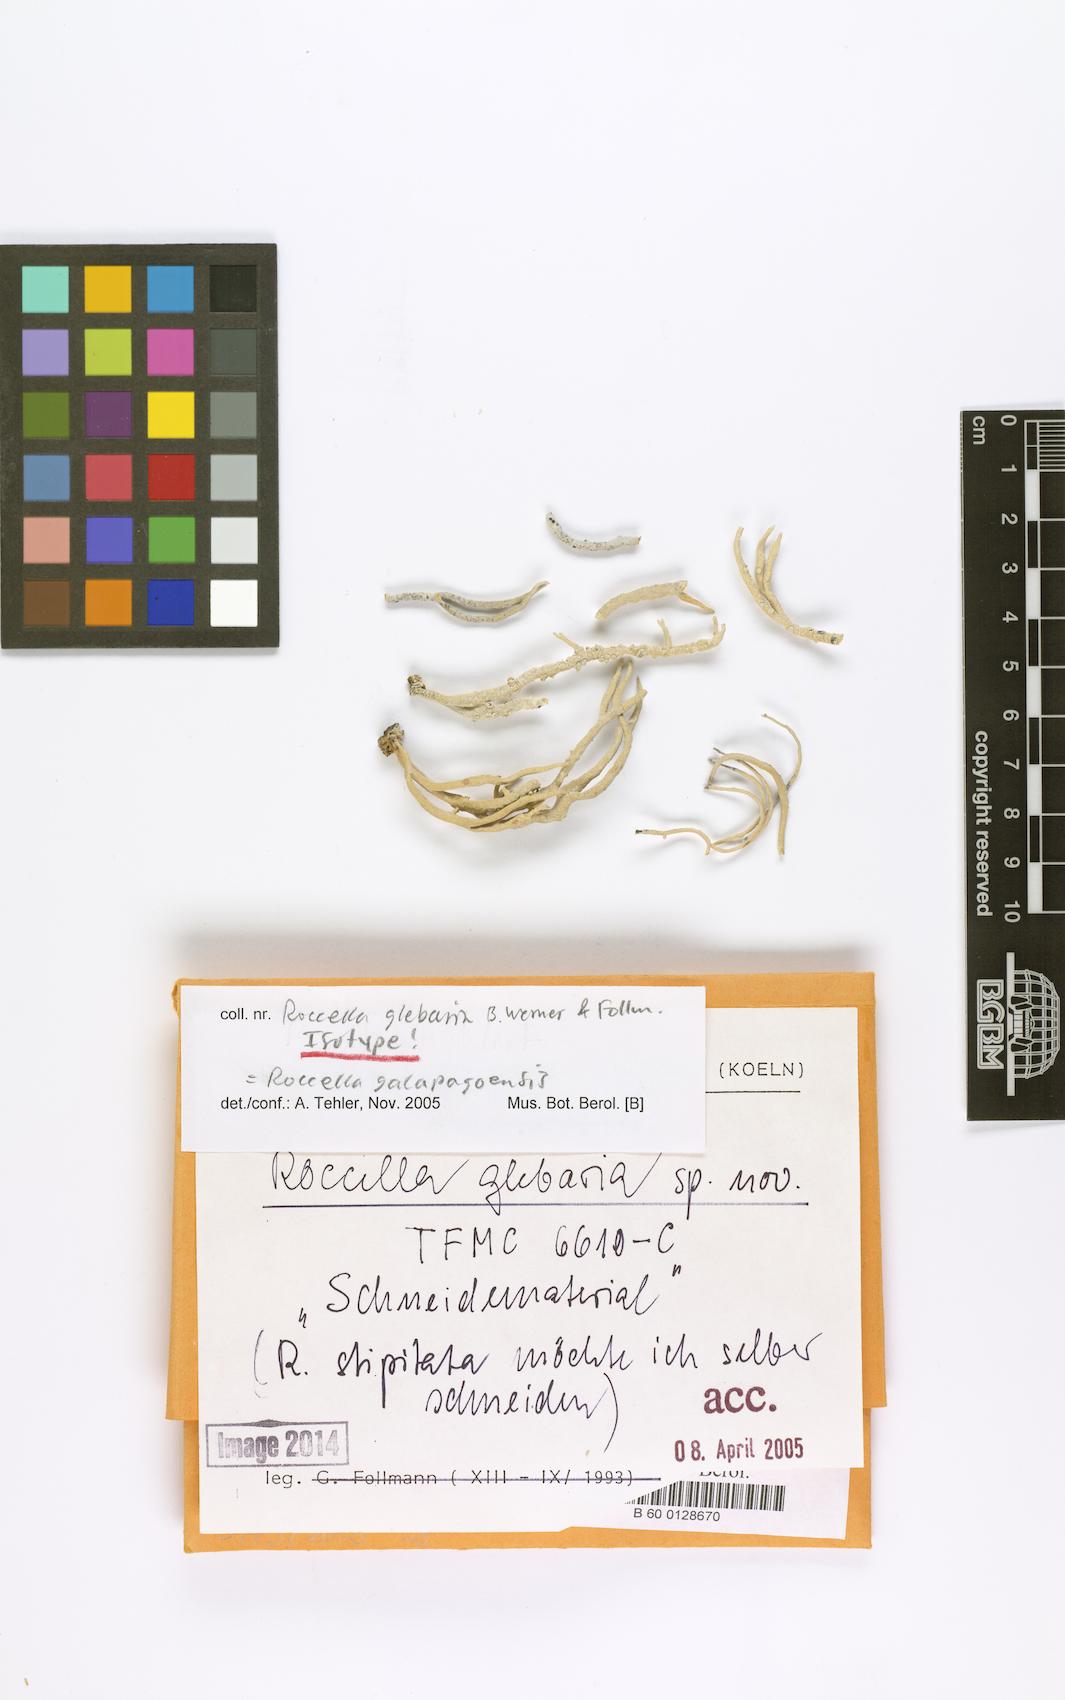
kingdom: Fungi
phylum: Ascomycota
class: Arthoniomycetes
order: Arthoniales
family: Roccellaceae
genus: Roccella
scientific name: Roccella glebaria
